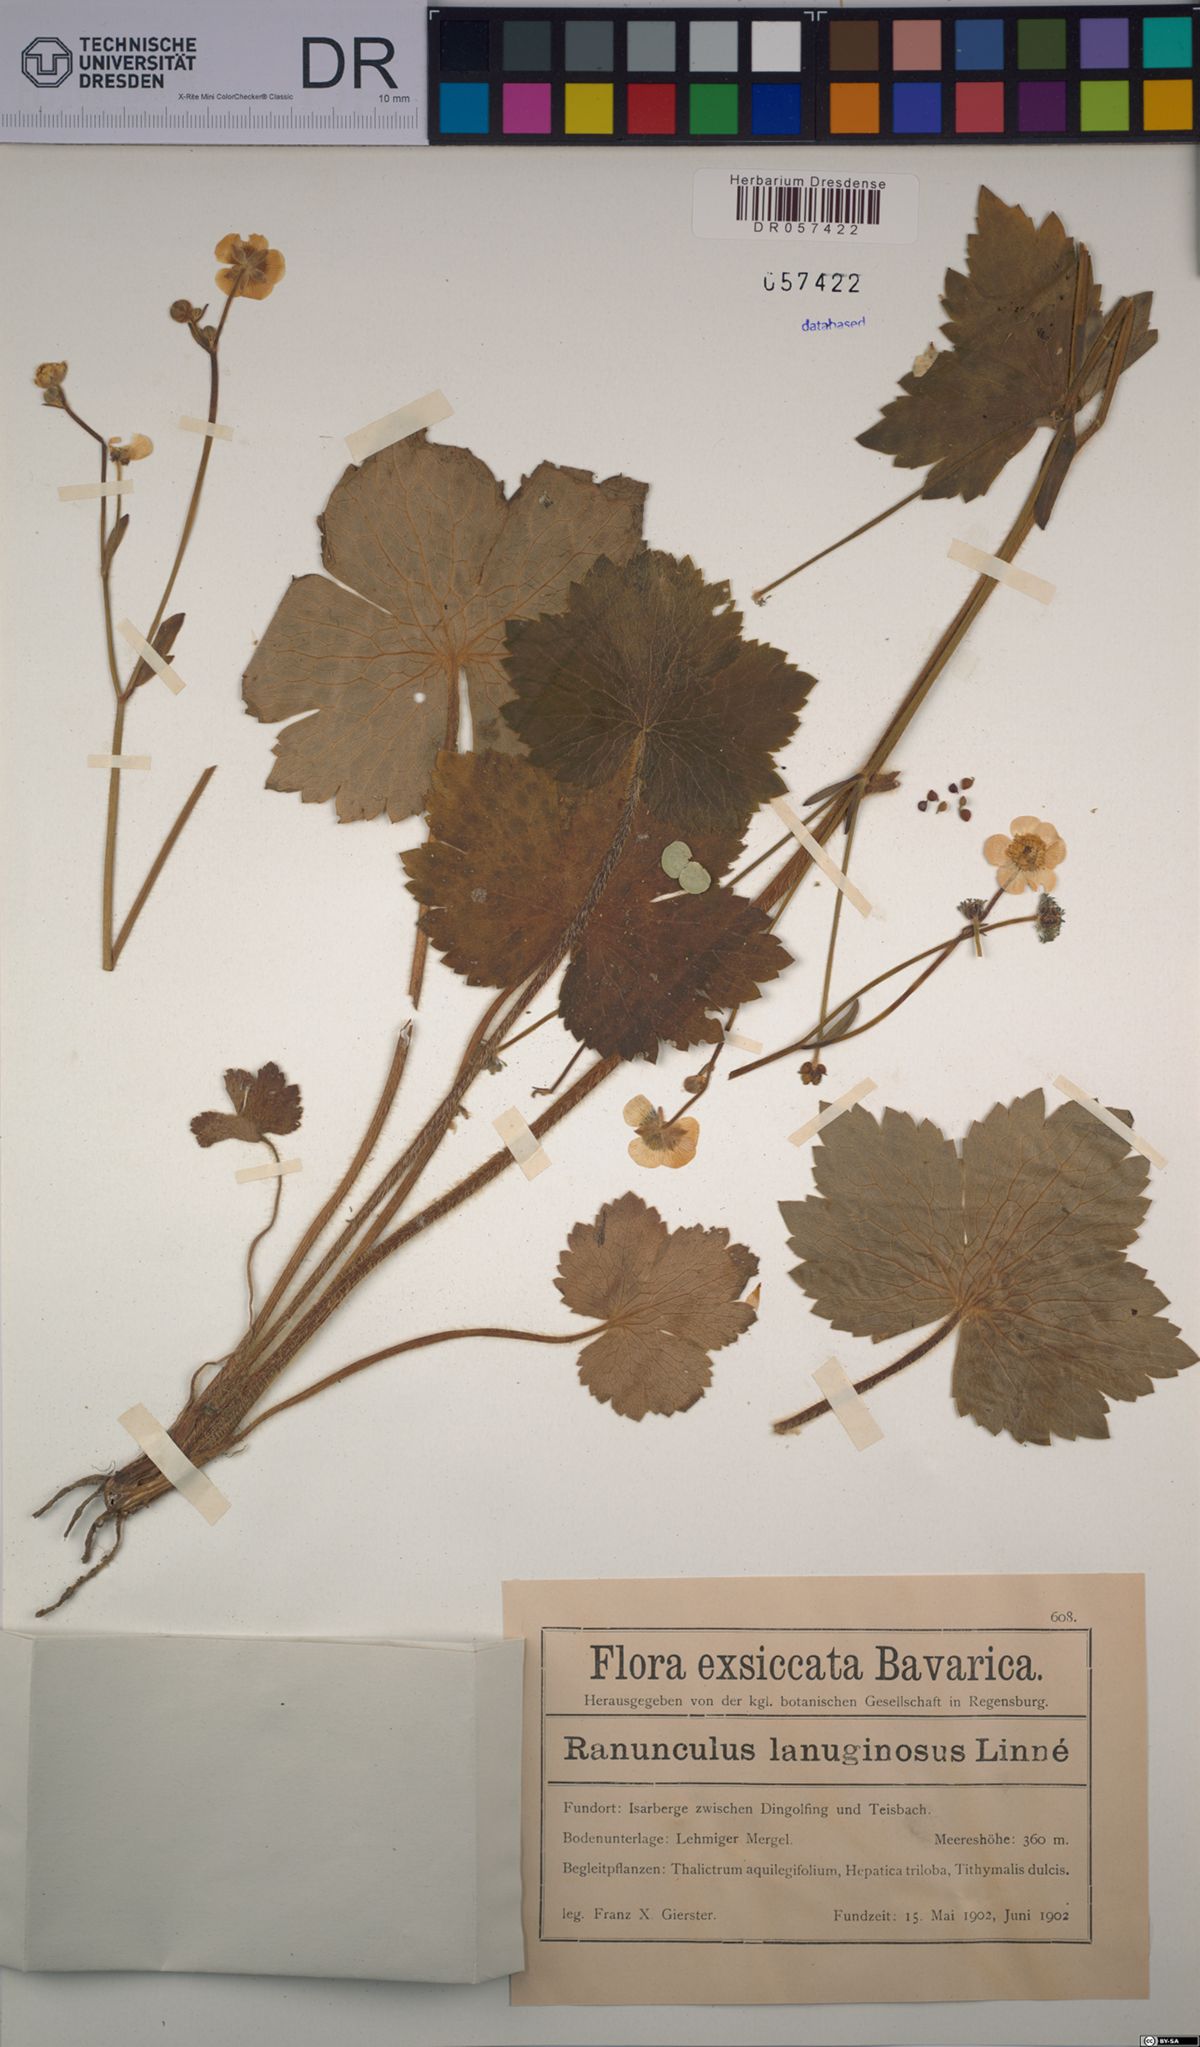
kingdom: Plantae
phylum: Tracheophyta
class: Magnoliopsida
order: Ranunculales
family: Ranunculaceae
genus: Ranunculus
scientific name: Ranunculus lanuginosus
